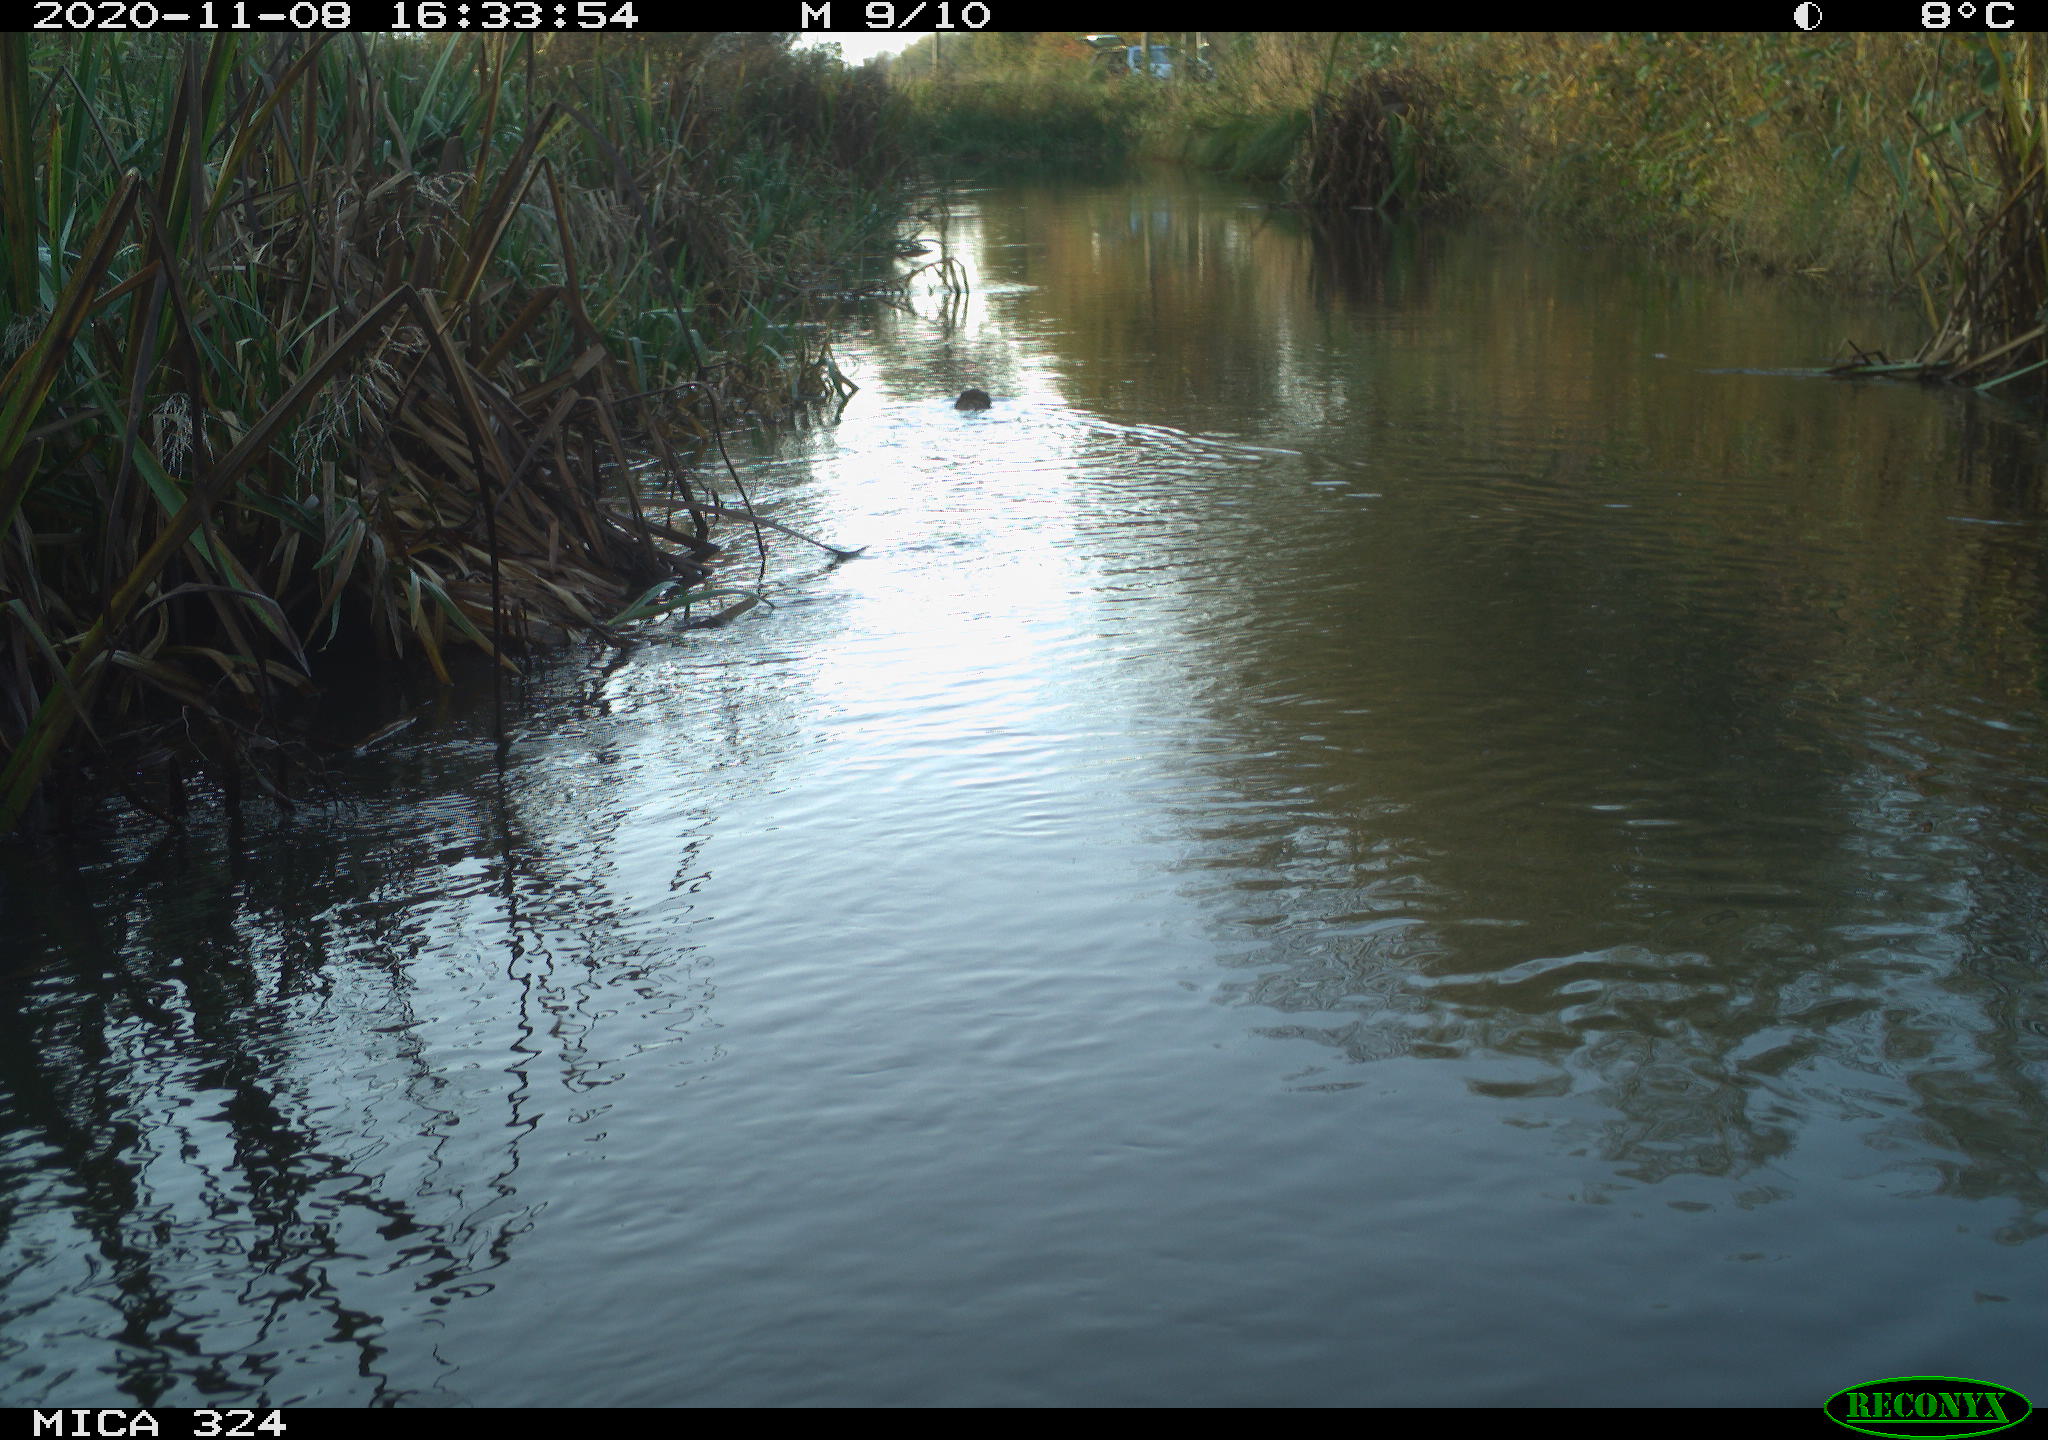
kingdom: Animalia
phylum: Chordata
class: Mammalia
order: Rodentia
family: Cricetidae
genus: Ondatra
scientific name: Ondatra zibethicus
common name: Muskrat
